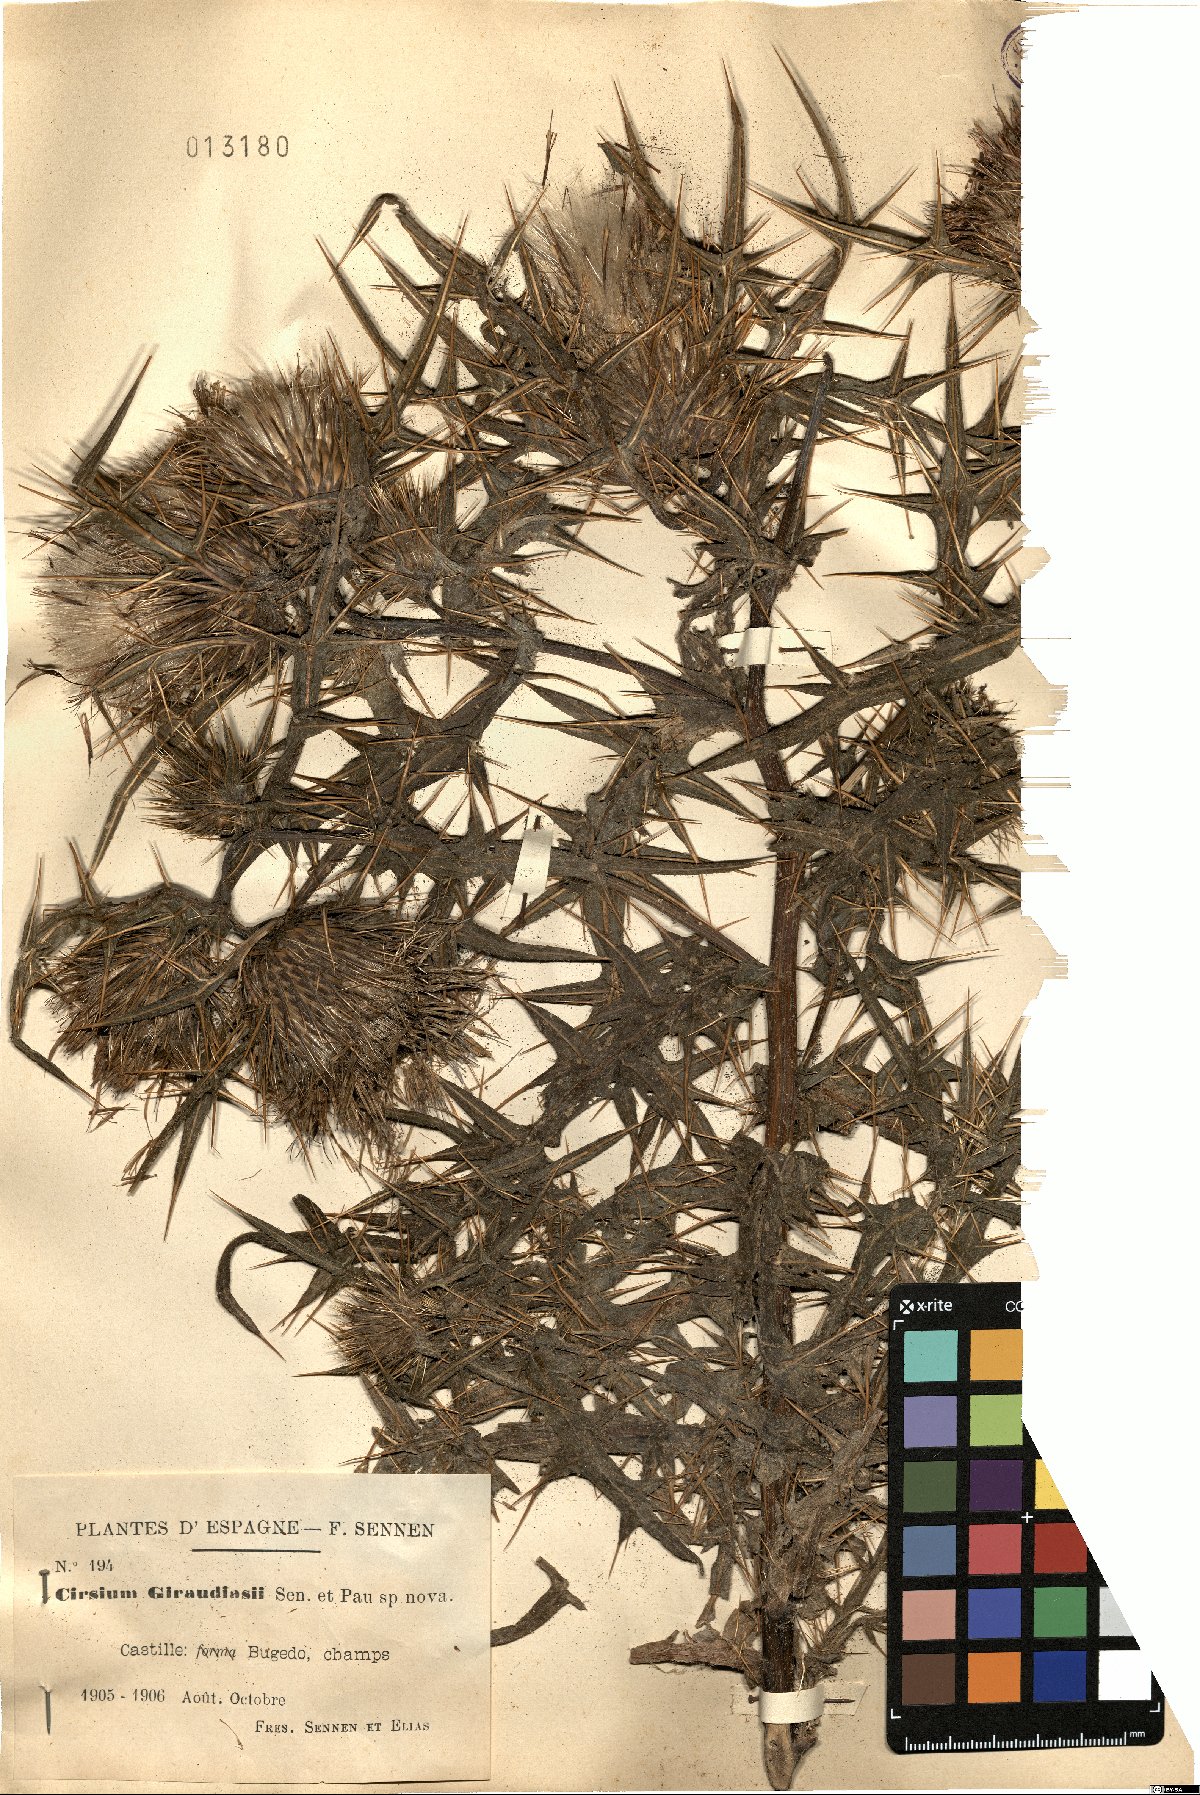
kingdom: Plantae
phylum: Tracheophyta
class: Magnoliopsida
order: Asterales
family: Asteraceae
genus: Lophiolepis
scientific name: Lophiolepis richteriana
